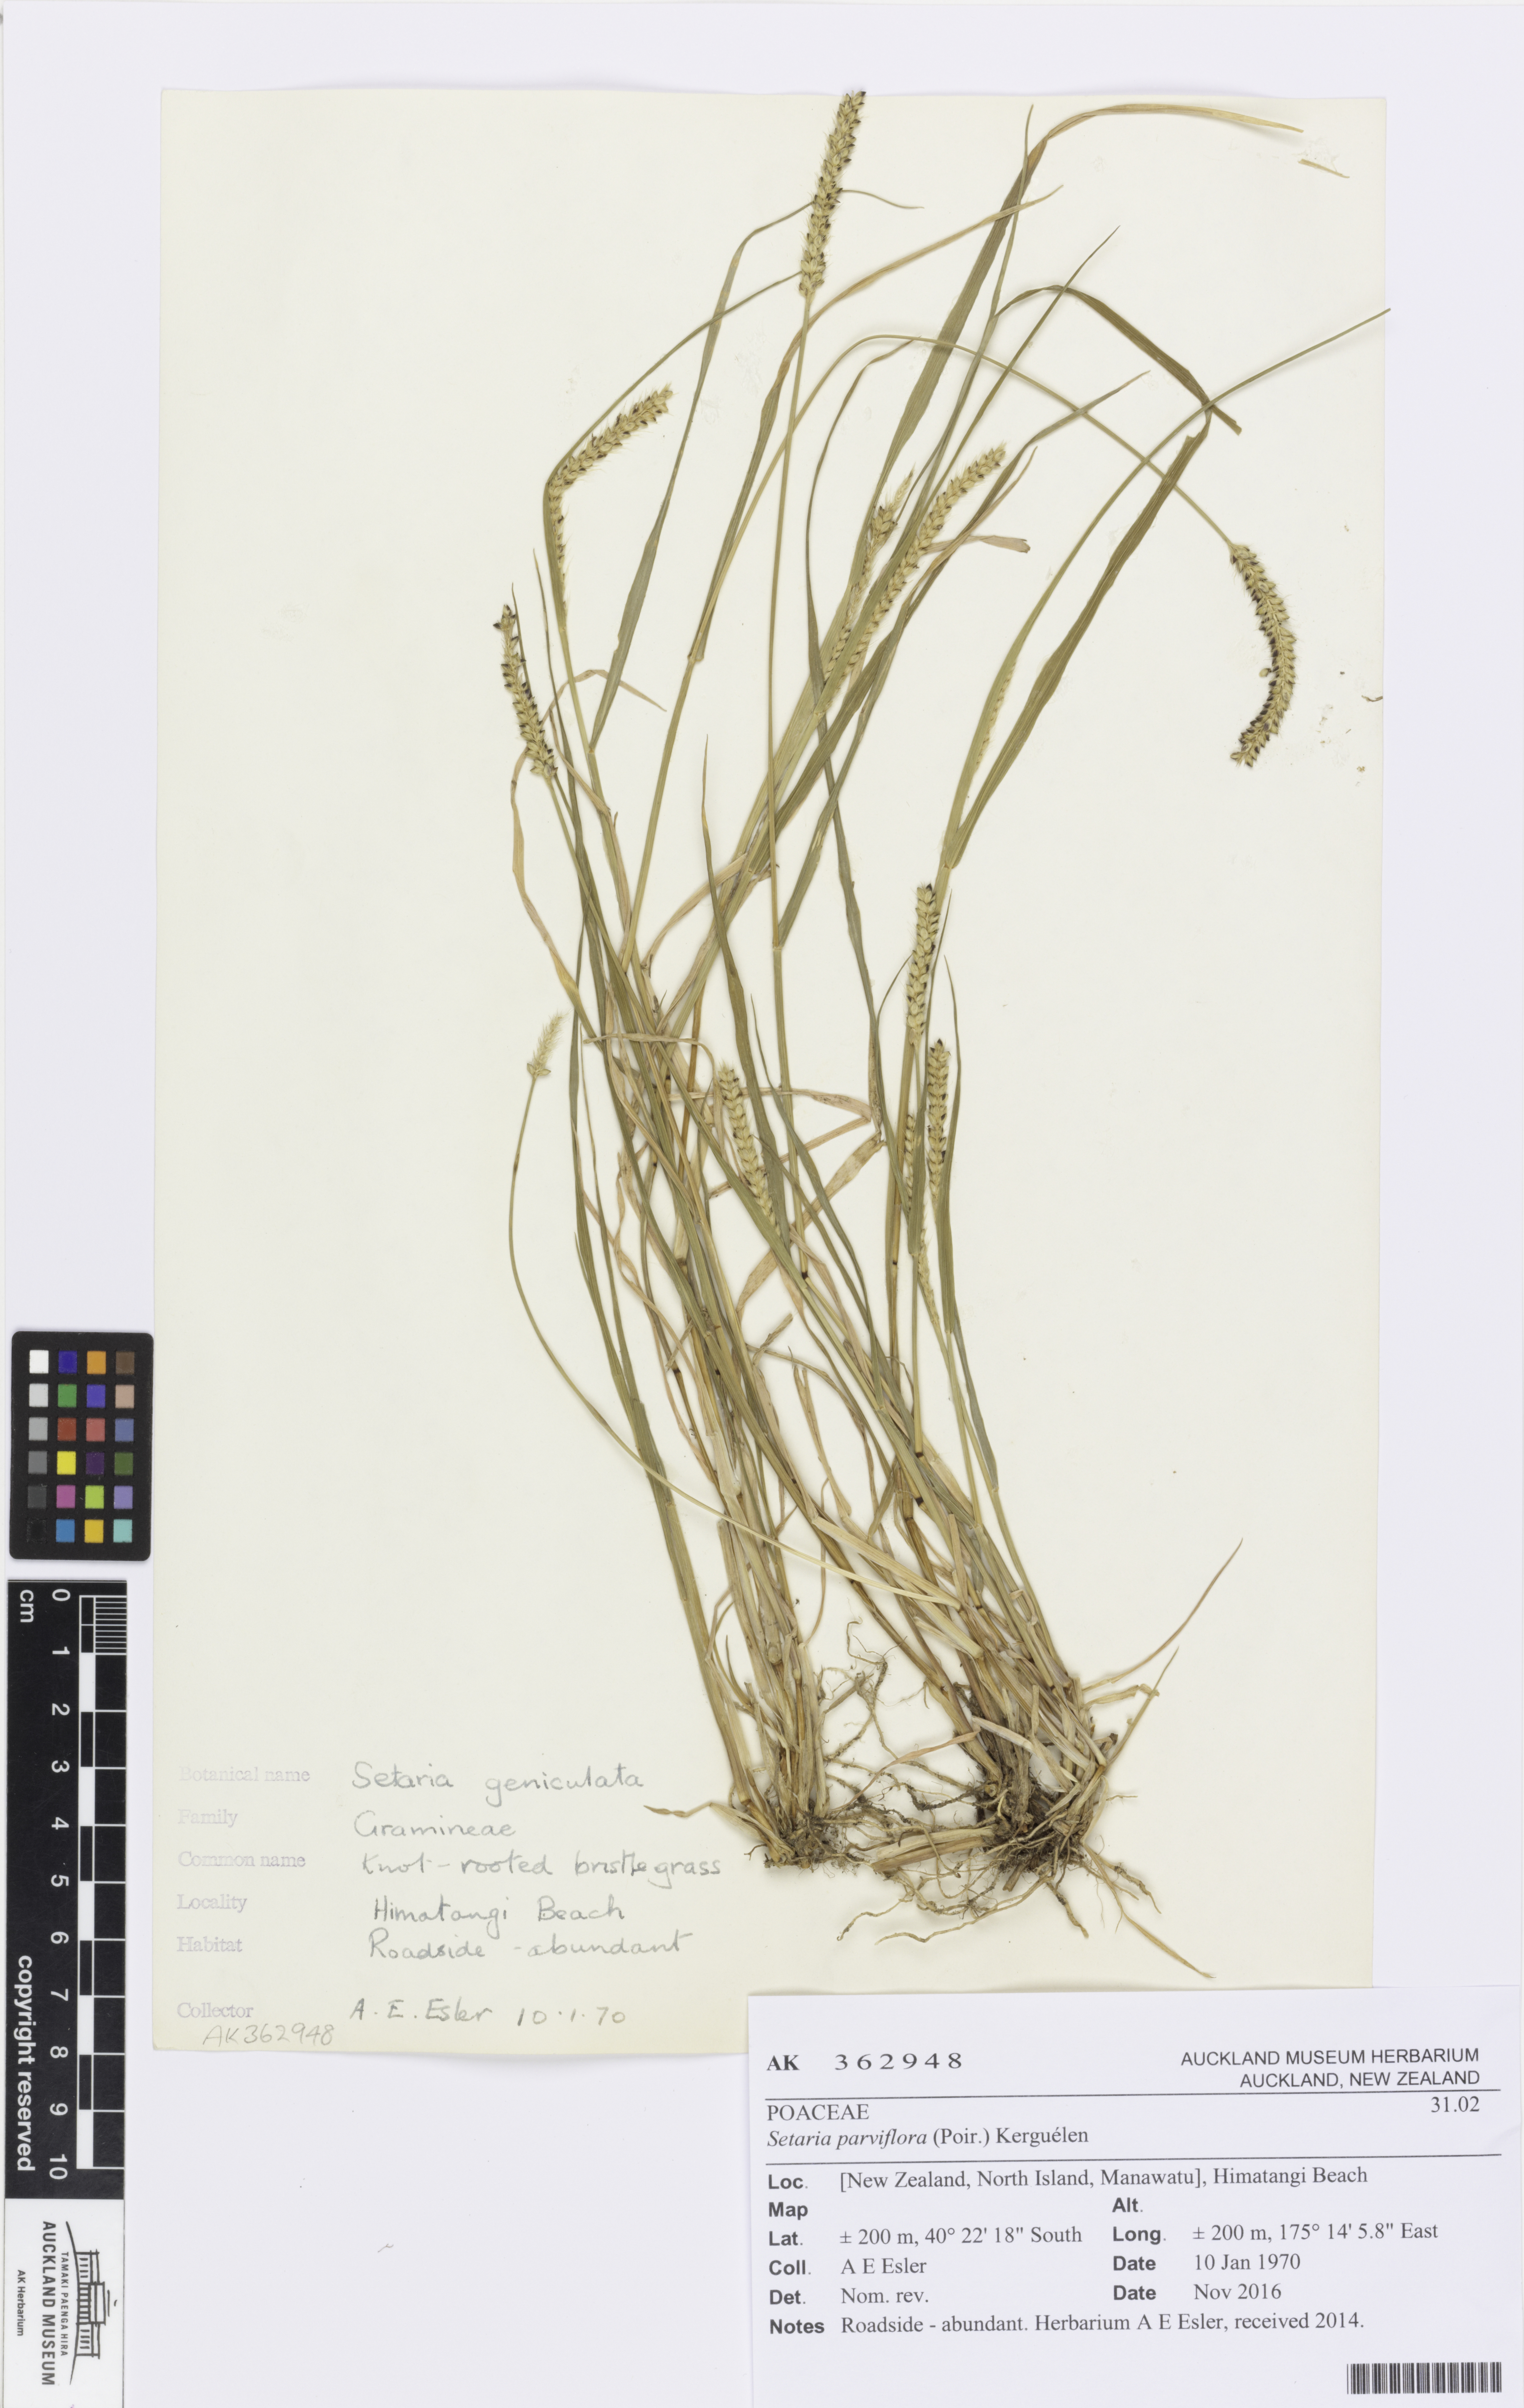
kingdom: Plantae
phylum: Tracheophyta
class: Liliopsida
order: Poales
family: Poaceae
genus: Setaria
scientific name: Setaria parviflora
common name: Knotroot bristle-grass
